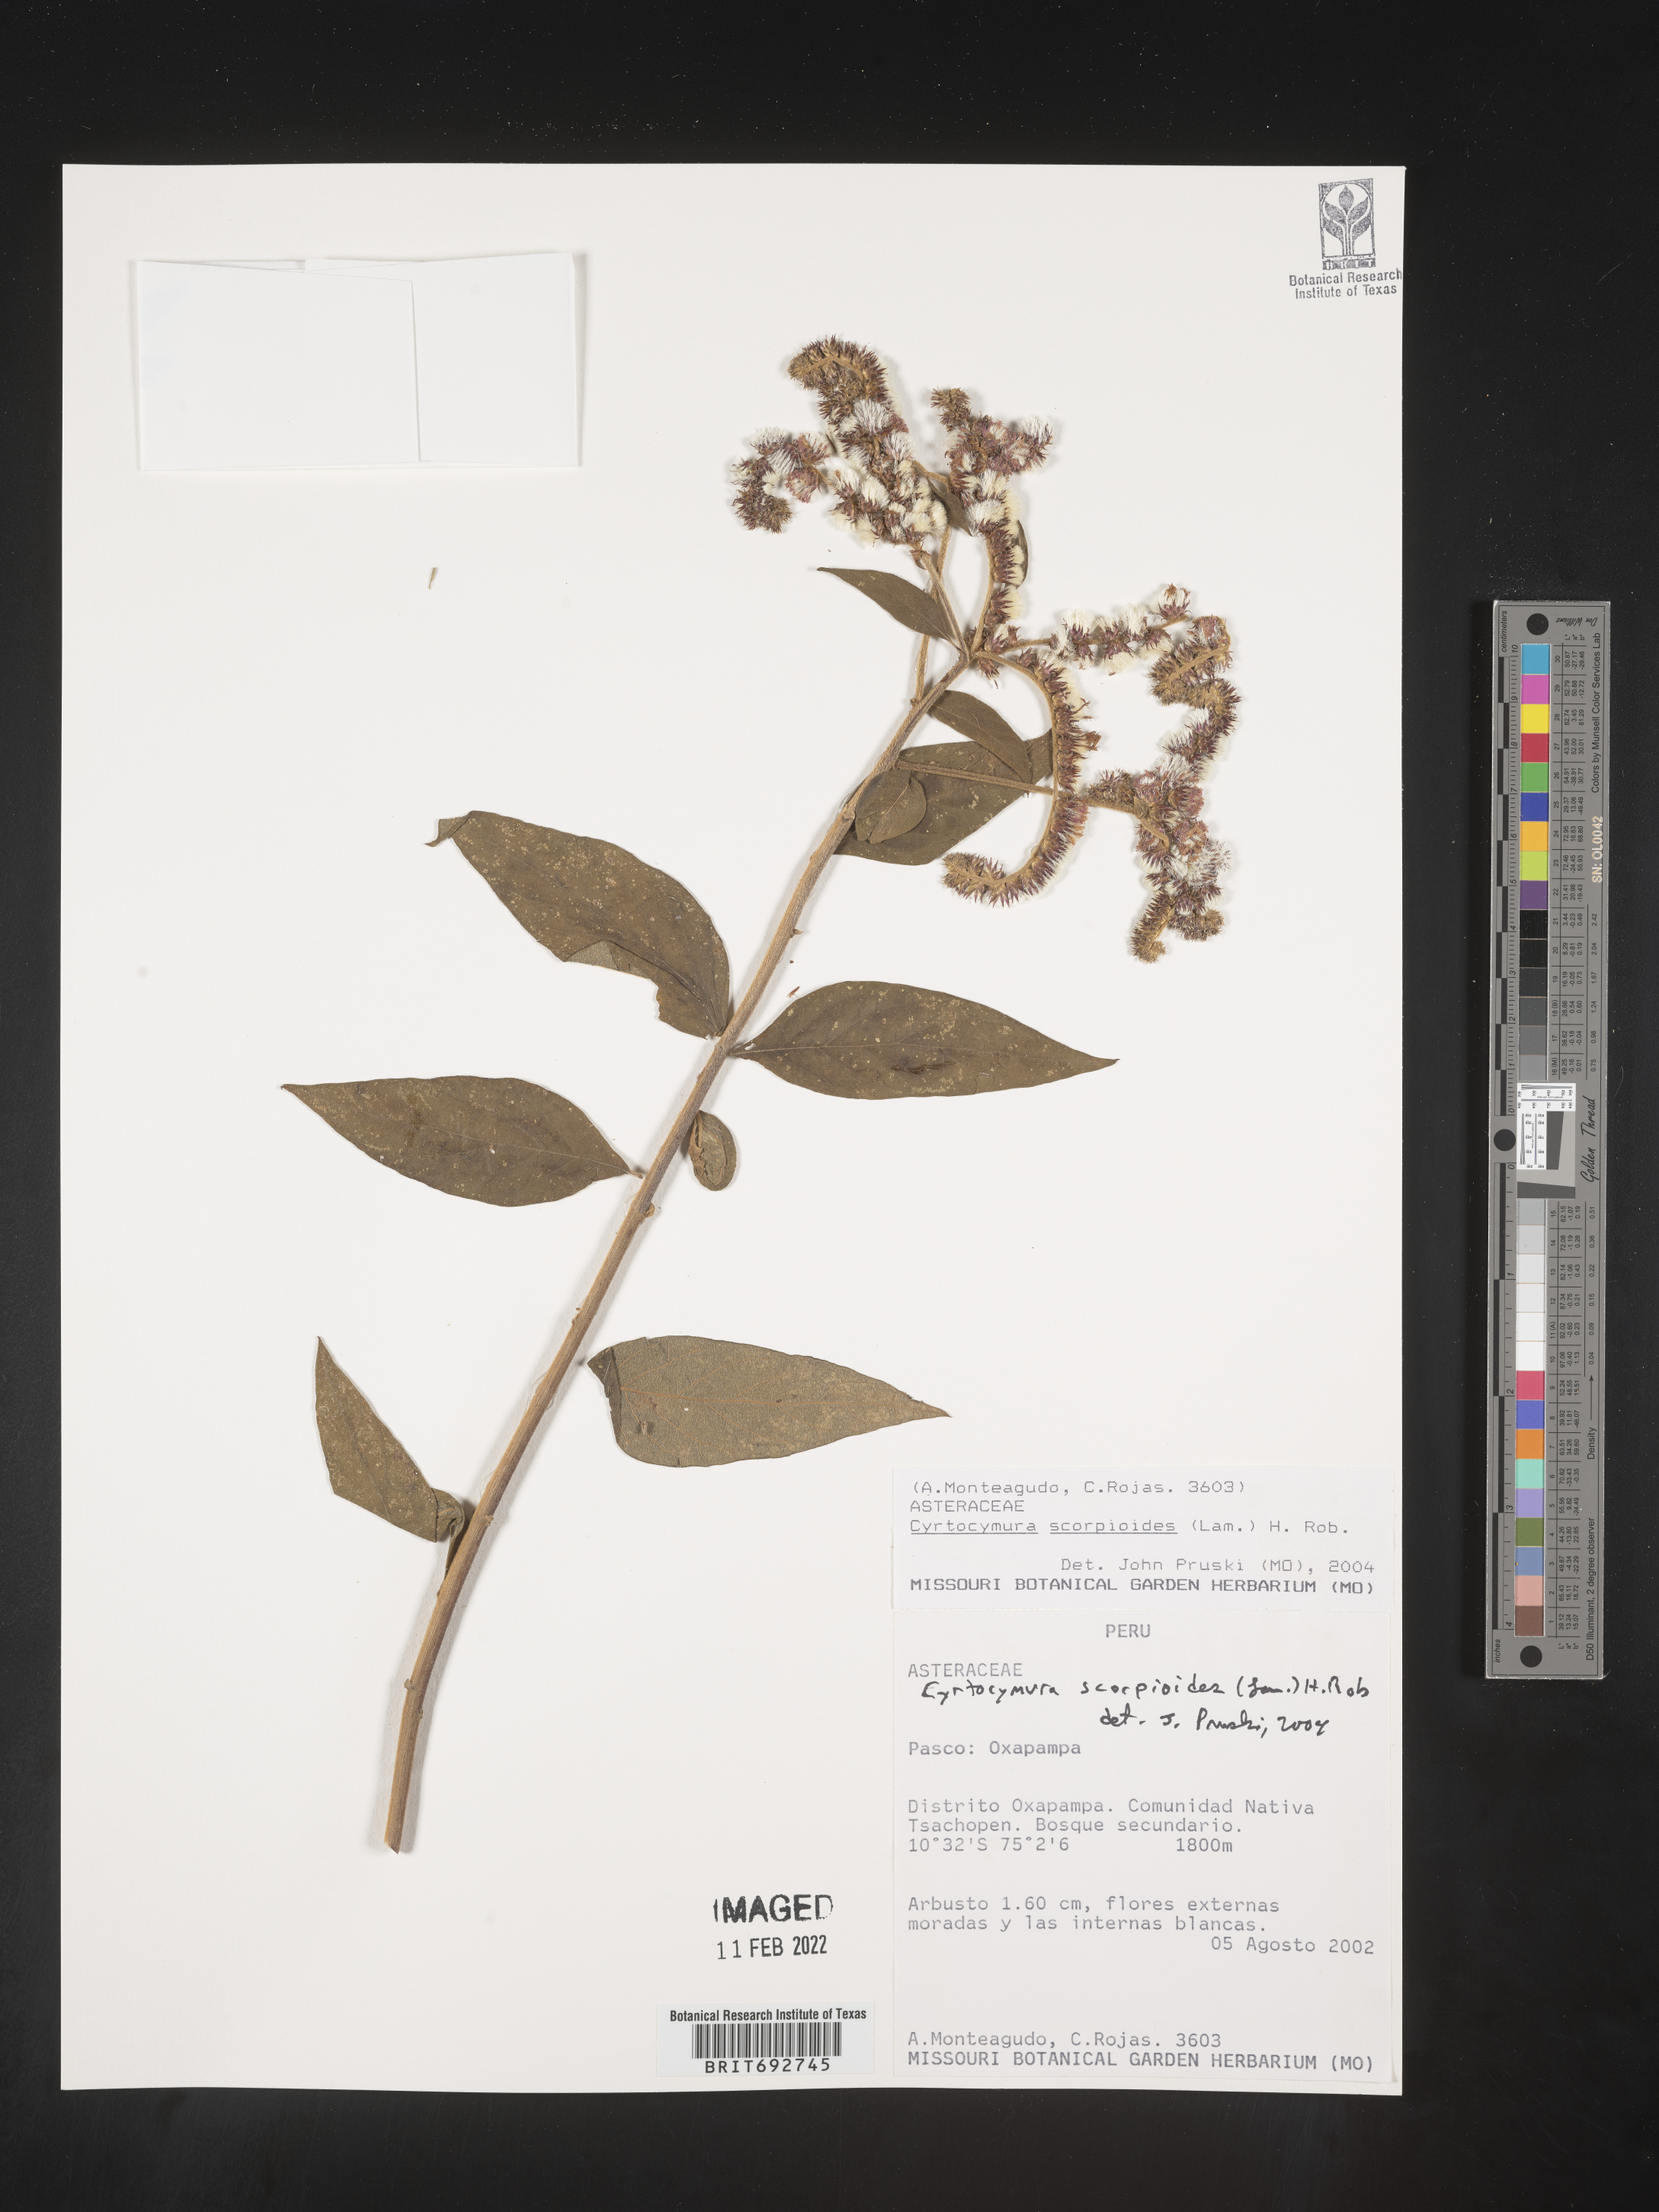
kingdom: Plantae
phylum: Tracheophyta
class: Magnoliopsida
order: Asterales
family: Asteraceae
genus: Cyrtocymura
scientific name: Cyrtocymura
